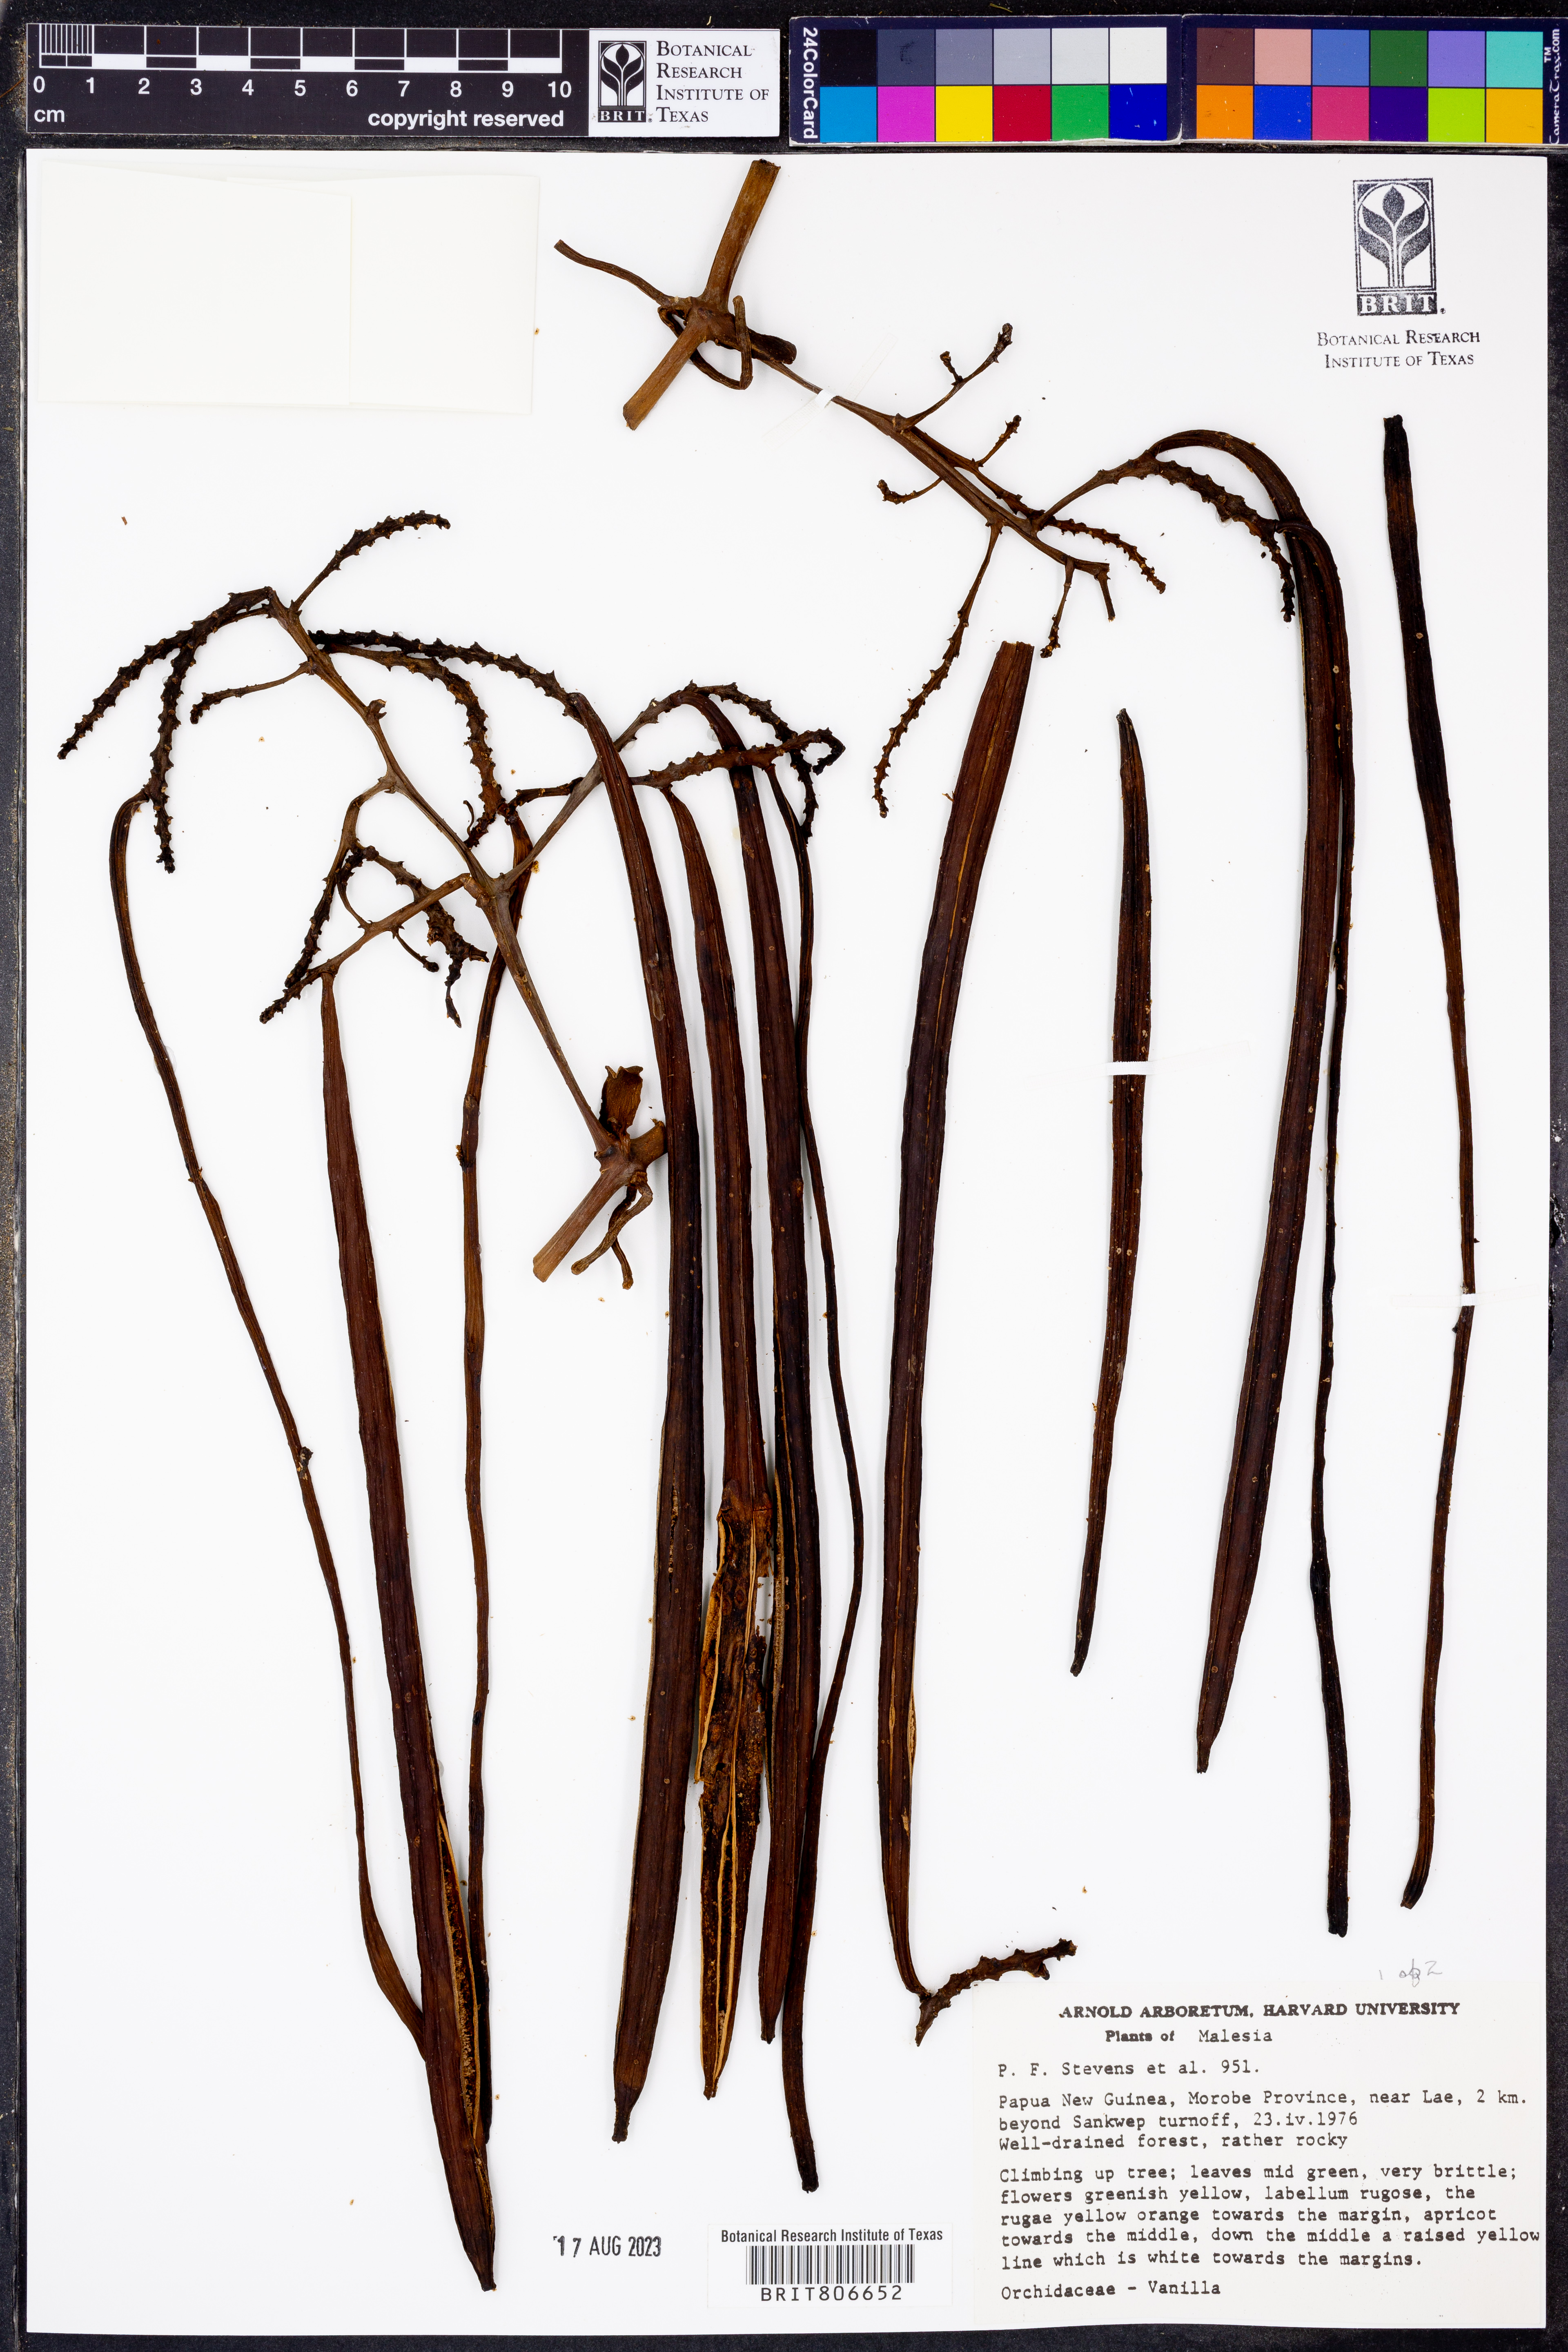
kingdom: Plantae
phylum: Tracheophyta
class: Liliopsida
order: Asparagales
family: Orchidaceae
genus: Vanilla
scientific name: Vanilla
